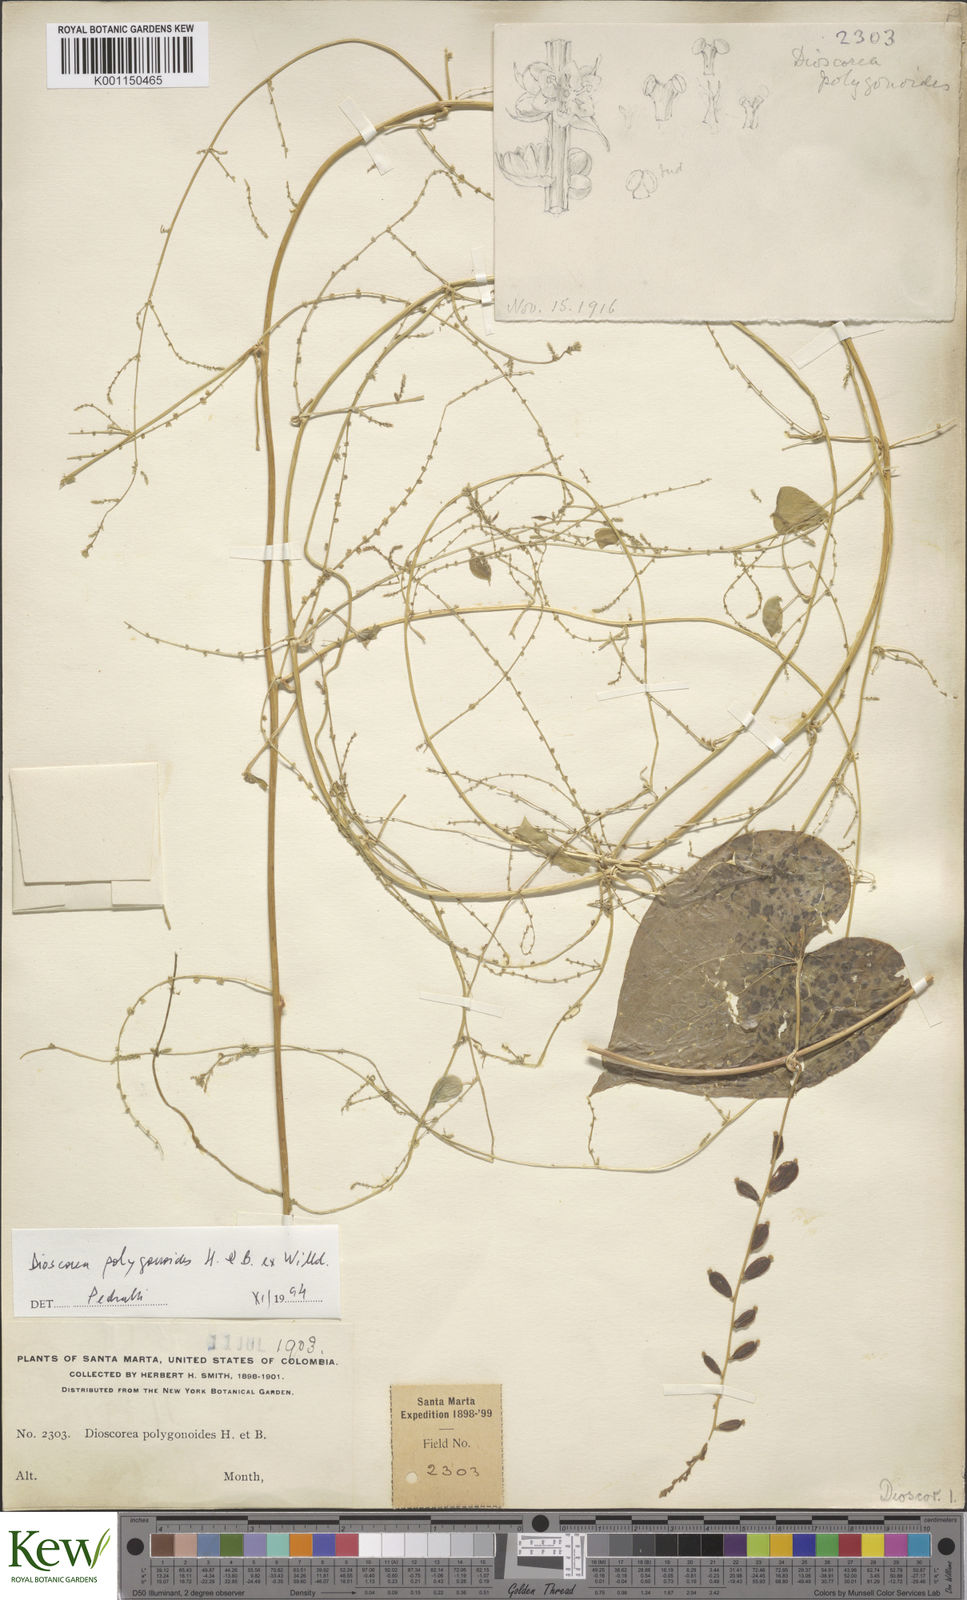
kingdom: Plantae
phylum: Tracheophyta
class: Liliopsida
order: Dioscoreales
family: Dioscoreaceae
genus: Dioscorea
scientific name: Dioscorea polygonoides
